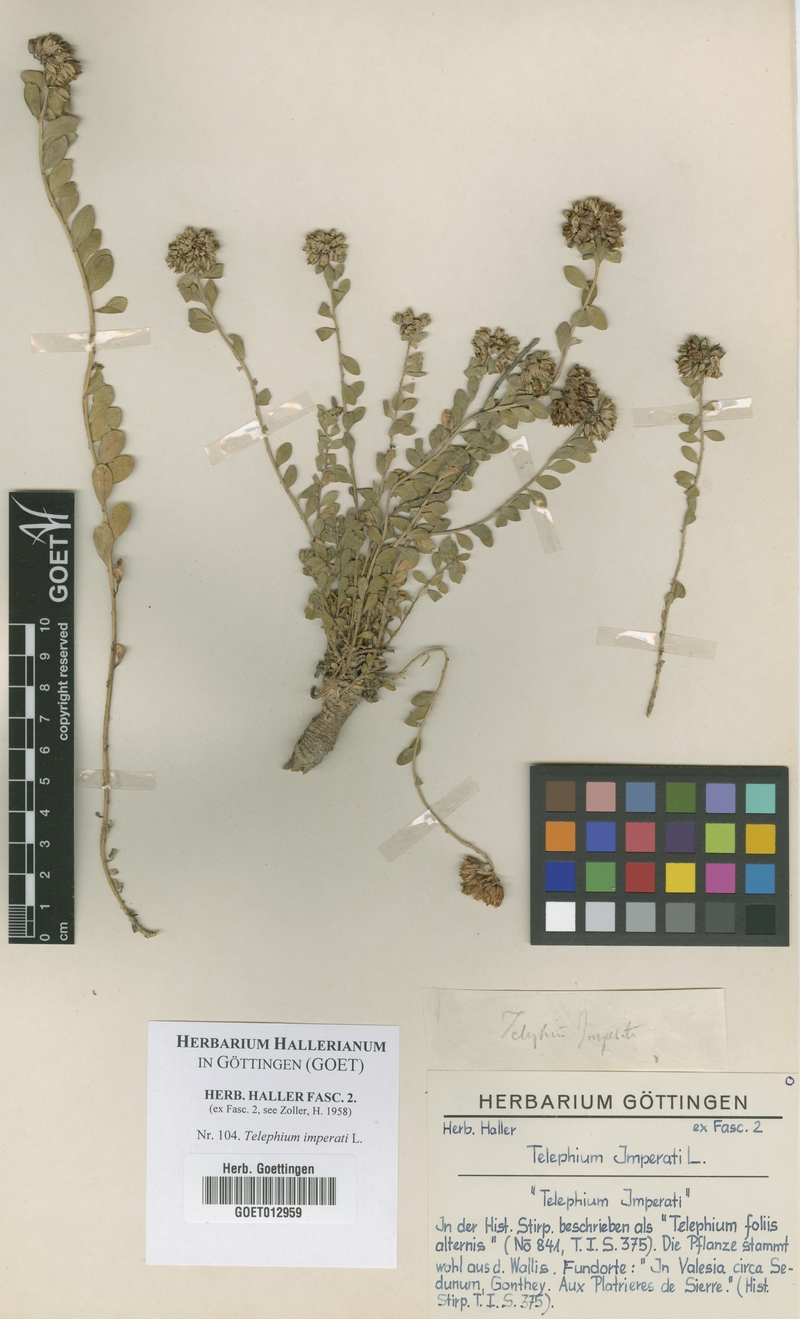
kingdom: Plantae
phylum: Tracheophyta
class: Magnoliopsida
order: Caryophyllales
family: Caryophyllaceae
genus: Telephium
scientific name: Telephium imperati
